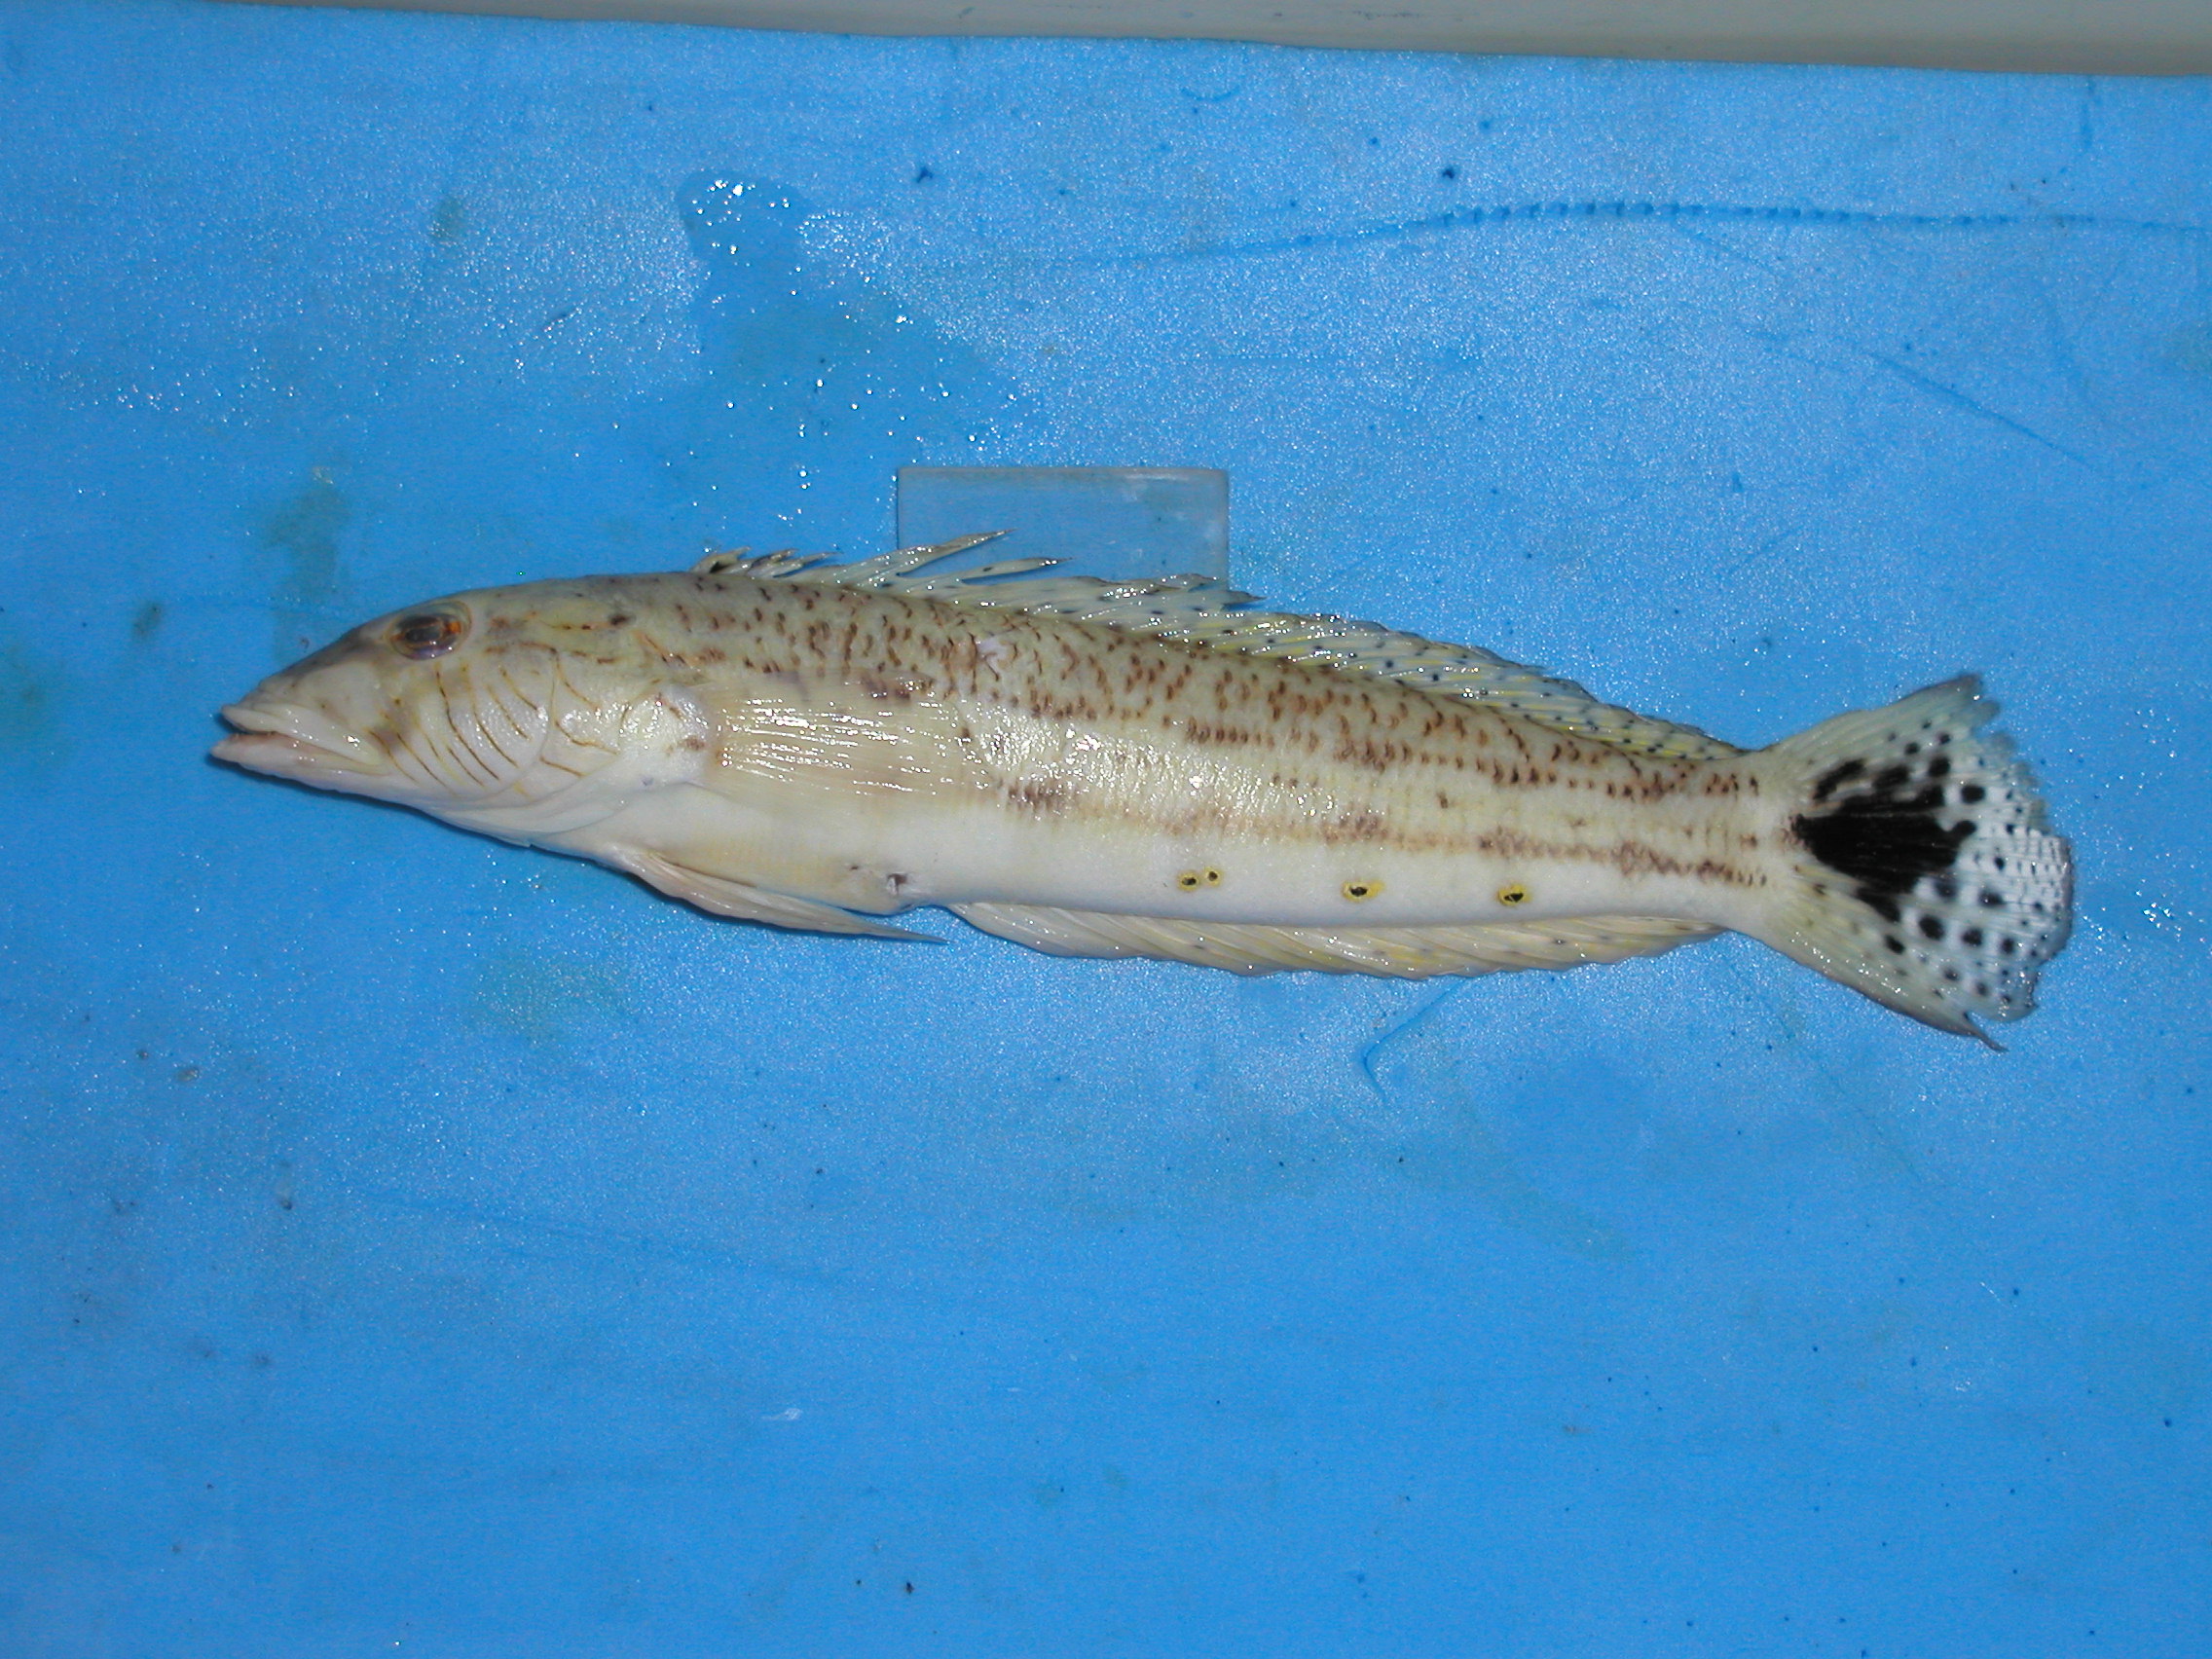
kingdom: Animalia
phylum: Chordata
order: Perciformes
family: Pinguipedidae
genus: Parapercis
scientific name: Parapercis hexophtalma
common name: Speckled sandperch
